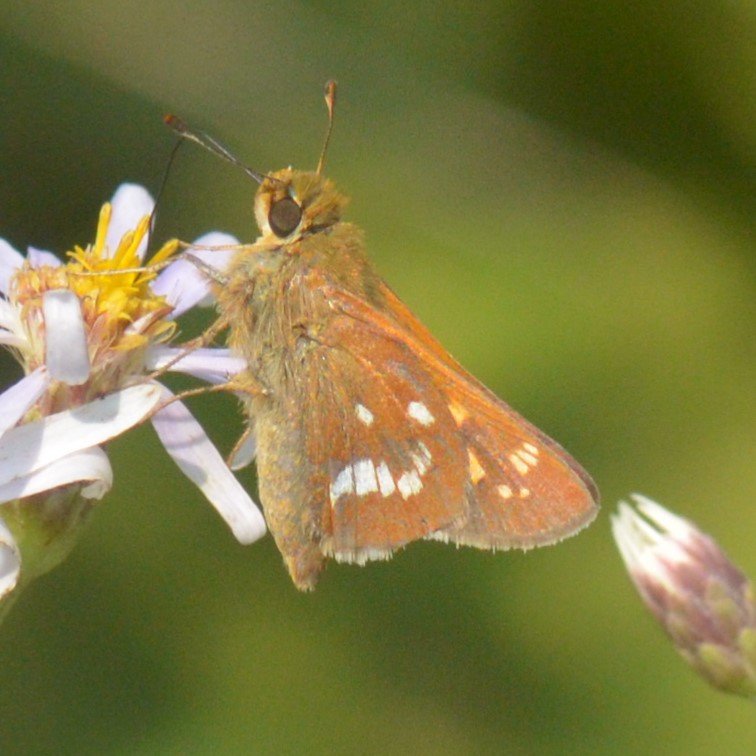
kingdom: Animalia
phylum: Arthropoda
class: Insecta
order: Lepidoptera
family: Hesperiidae
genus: Hesperia
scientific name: Hesperia leonardus
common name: Leonard's Skipper
